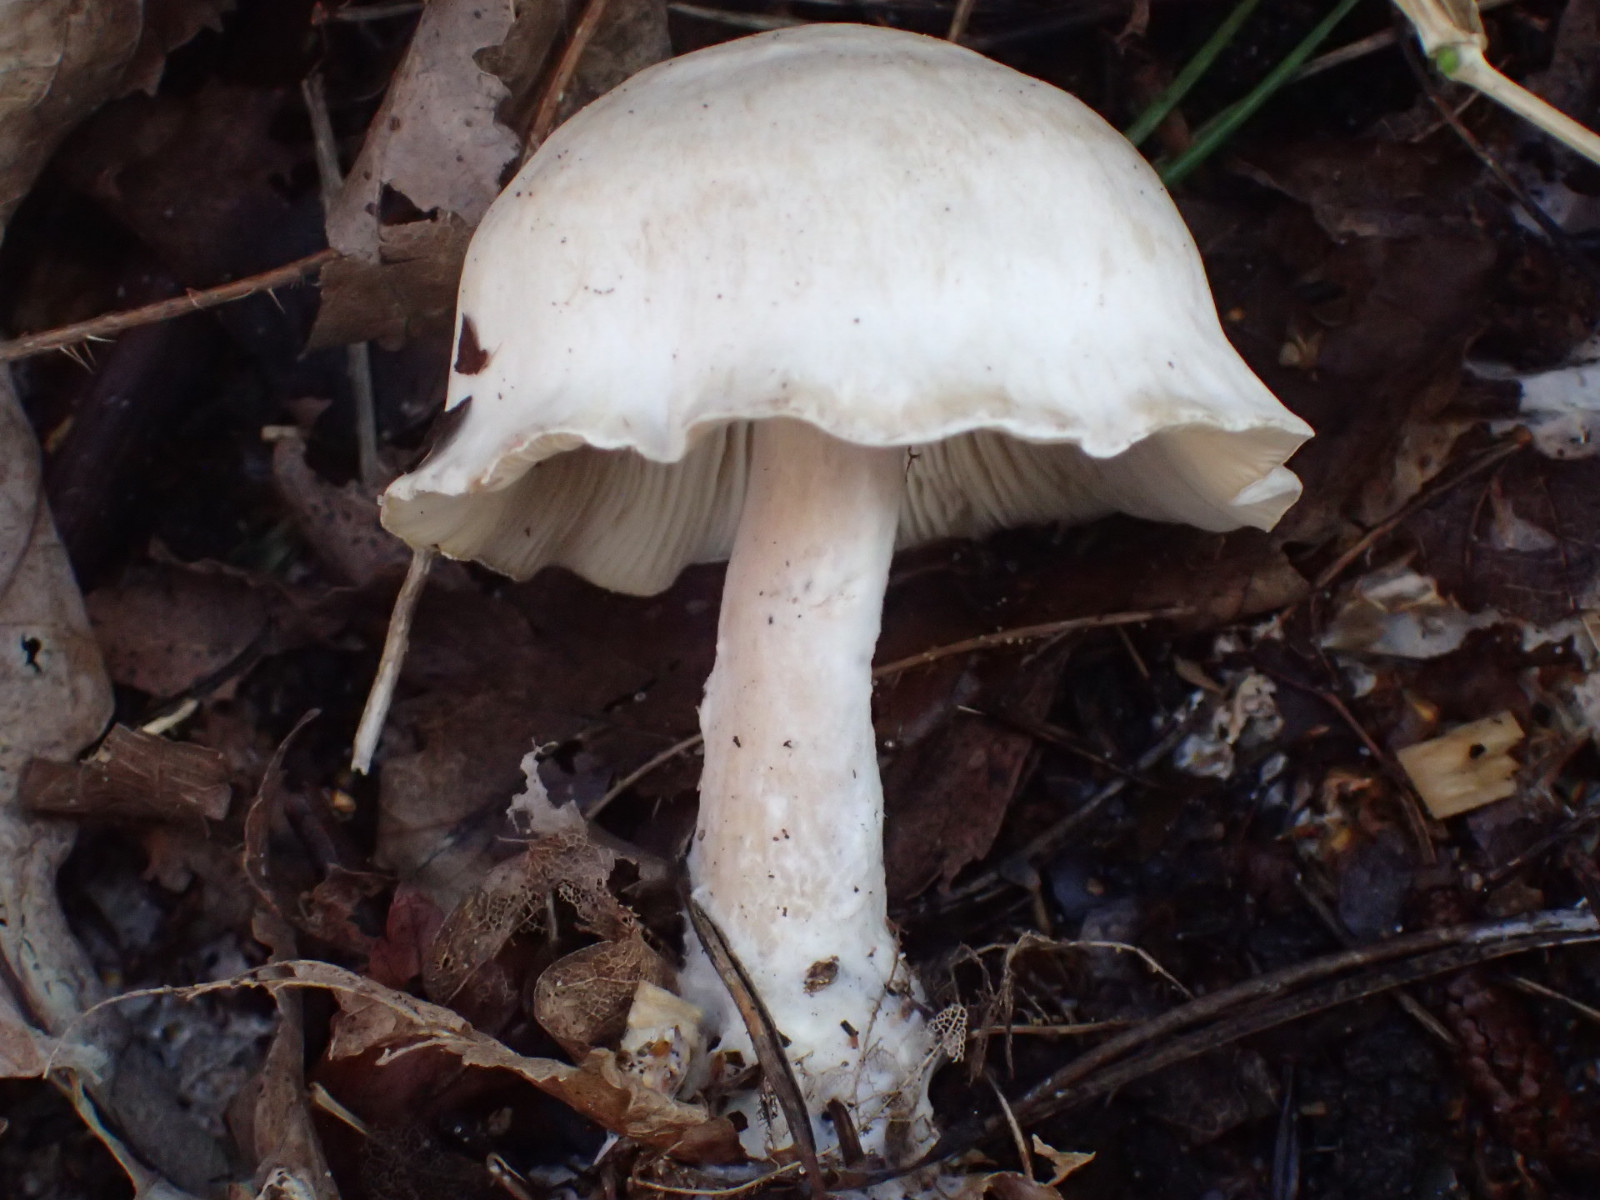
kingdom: Fungi
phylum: Basidiomycota
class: Agaricomycetes
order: Agaricales
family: Tricholomataceae
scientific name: Tricholomataceae
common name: ridderhatfamilien
